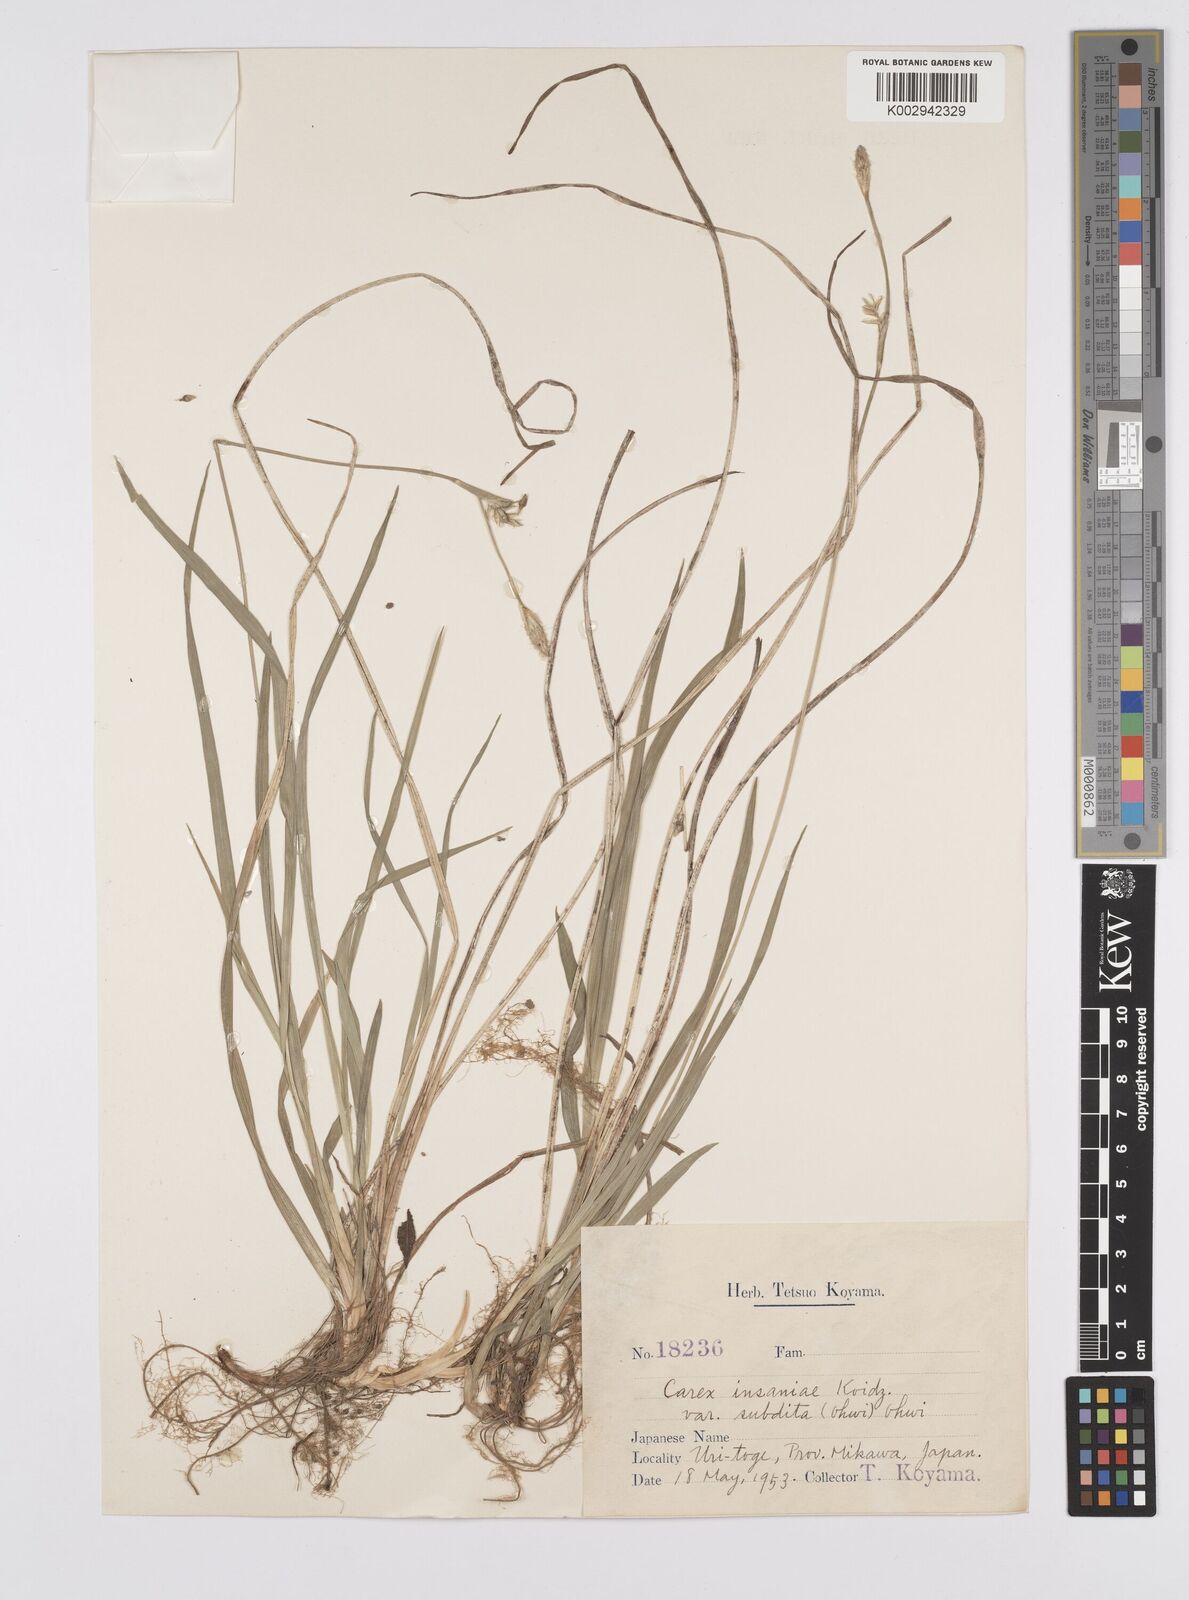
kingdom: Plantae
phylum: Tracheophyta
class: Liliopsida
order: Poales
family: Cyperaceae
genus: Carex
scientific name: Carex insaniae
